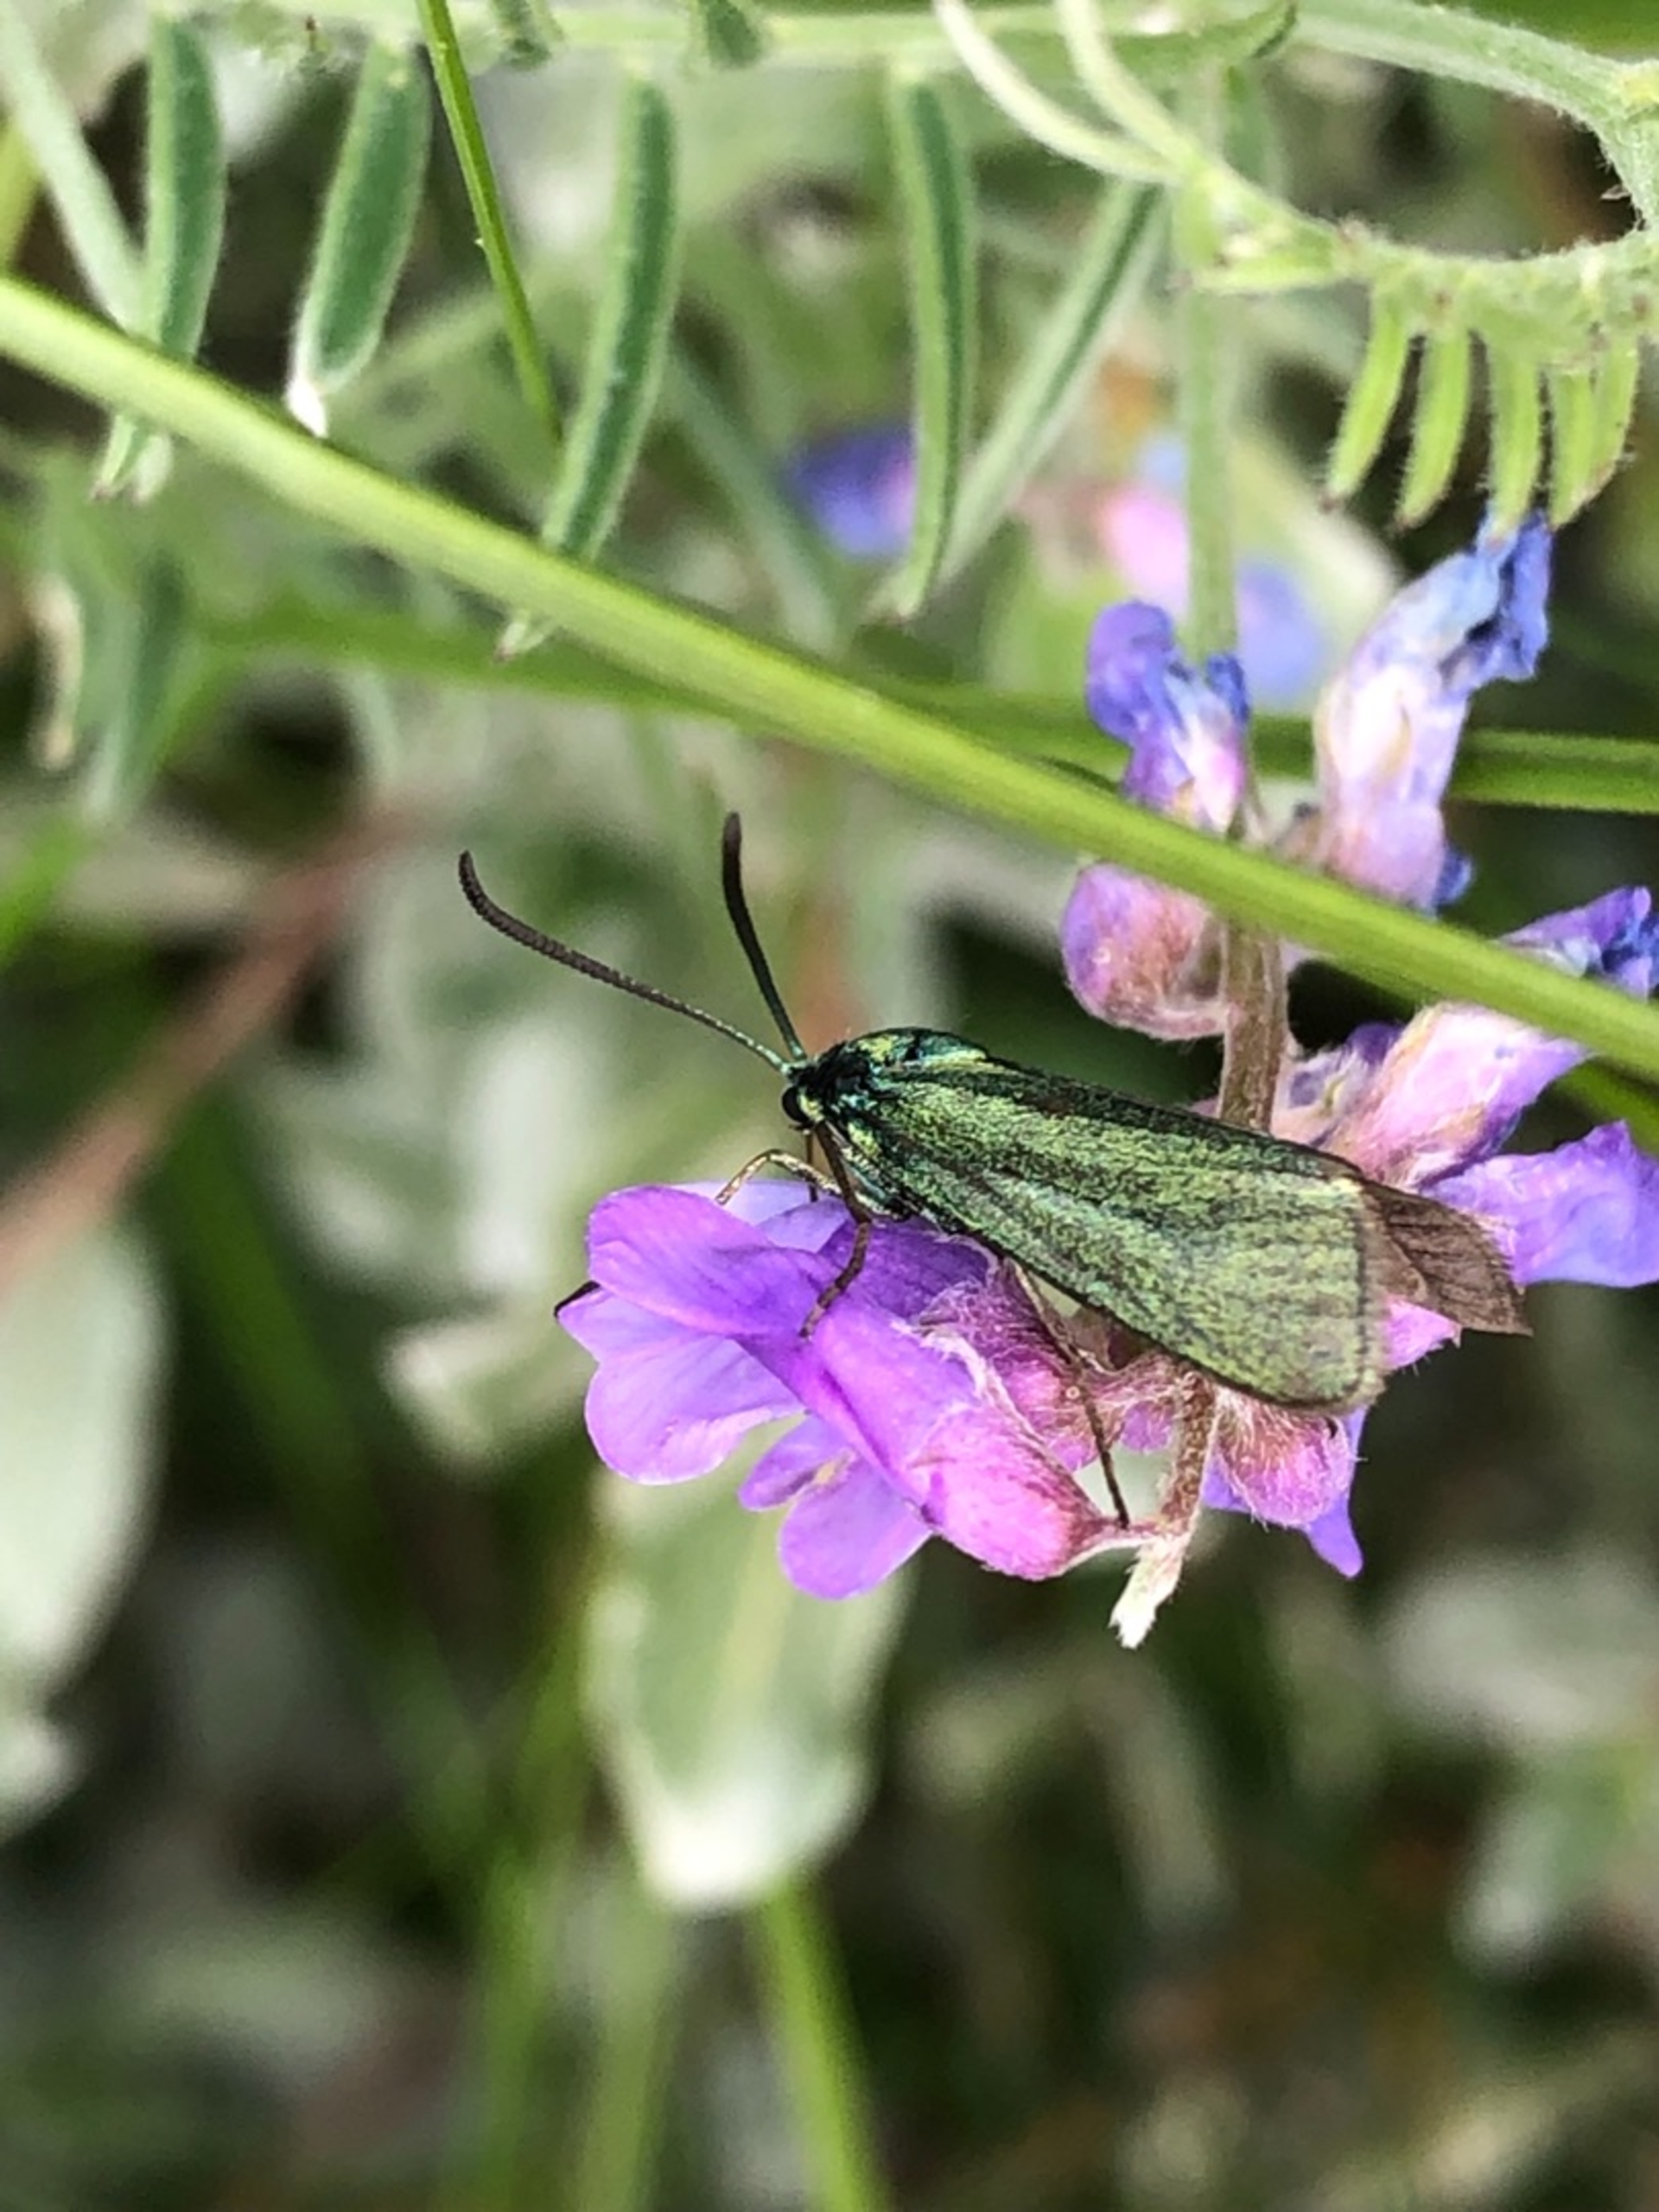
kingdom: Animalia
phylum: Arthropoda
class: Insecta
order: Lepidoptera
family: Zygaenidae
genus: Adscita
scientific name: Adscita statices
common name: Metalvinge
